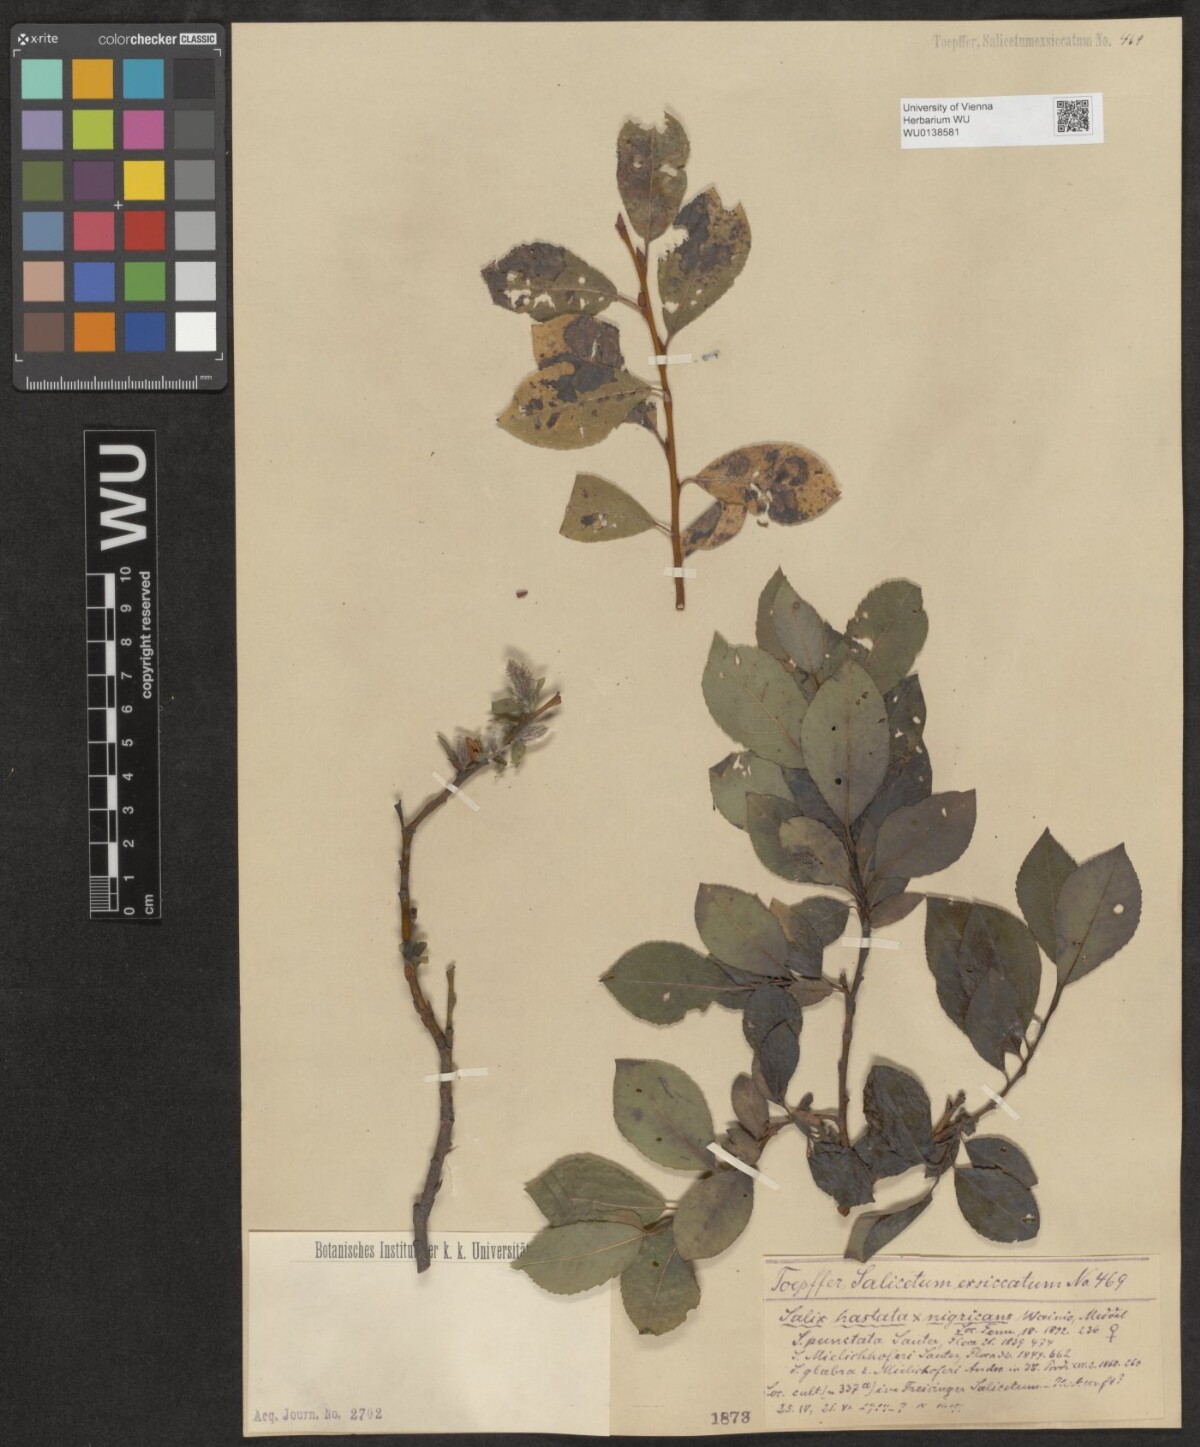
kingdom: Plantae
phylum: Tracheophyta
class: Magnoliopsida
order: Malpighiales
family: Salicaceae
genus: Salix
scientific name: Salix mielichhoferi
